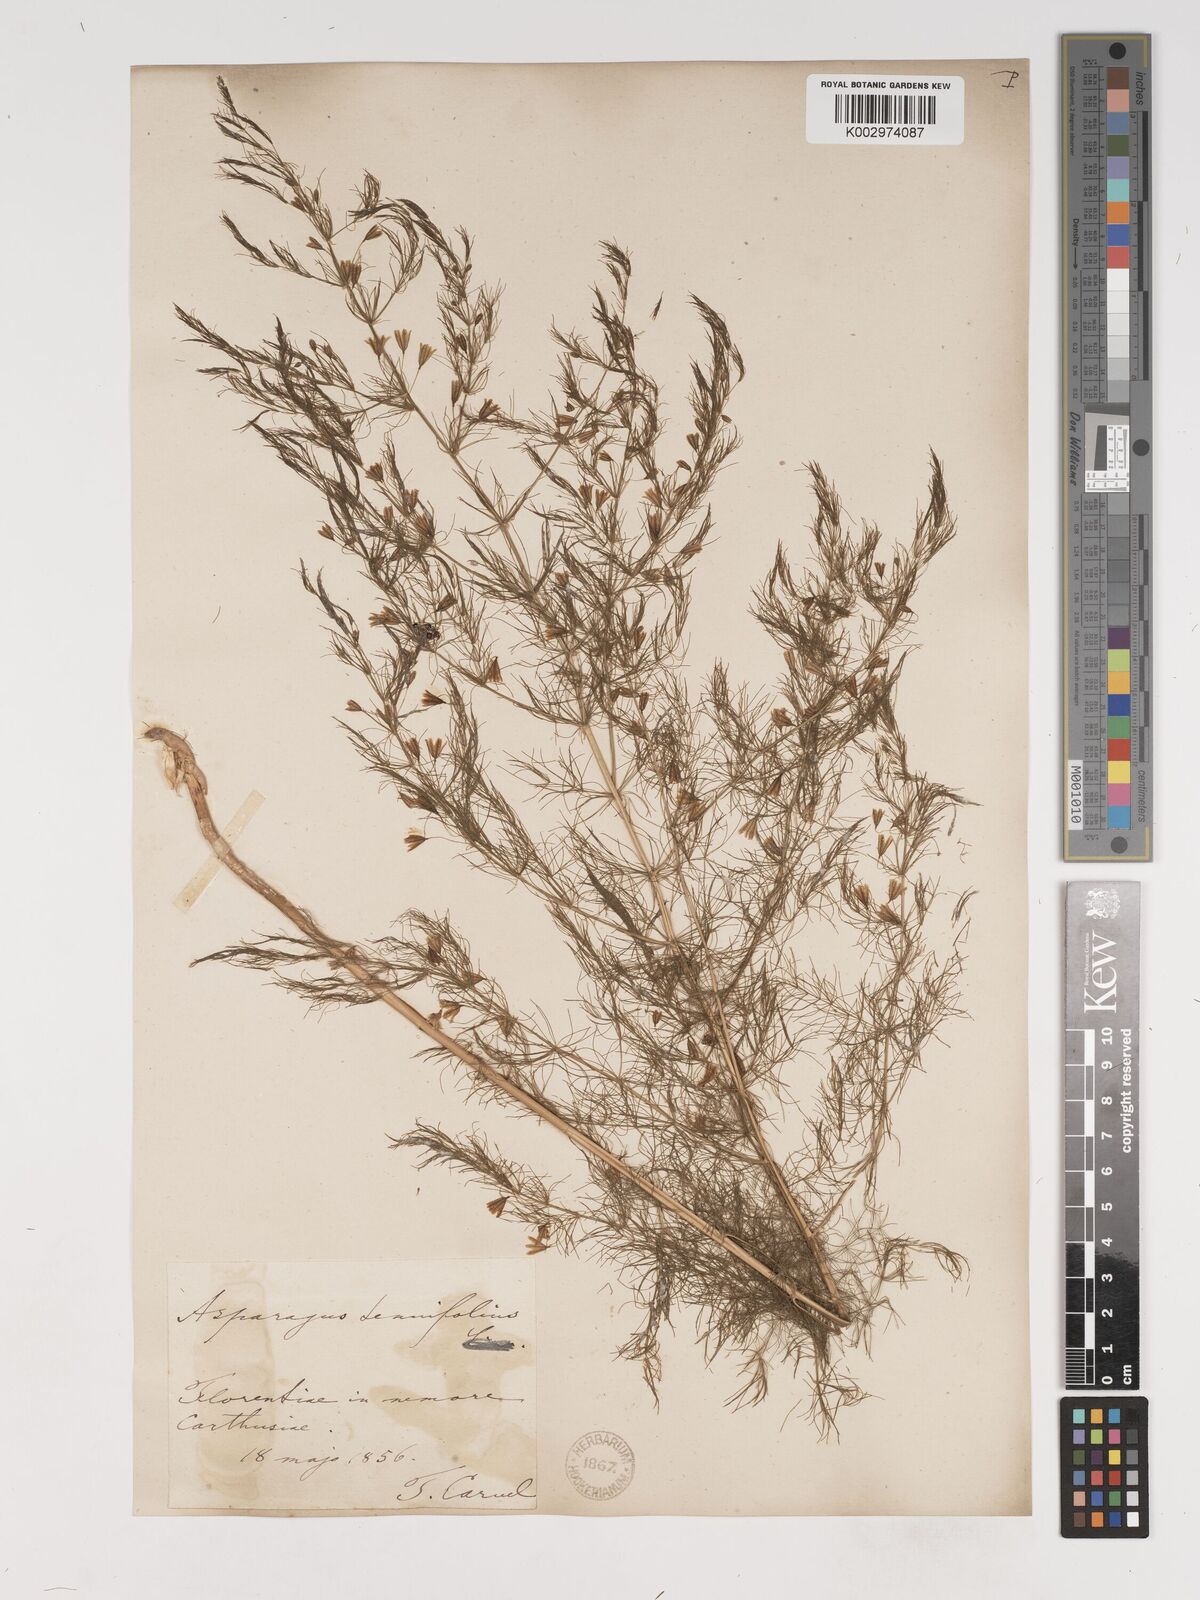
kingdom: Plantae
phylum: Tracheophyta
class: Liliopsida
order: Asparagales
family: Asparagaceae
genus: Asparagus
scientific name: Asparagus tenuifolius
